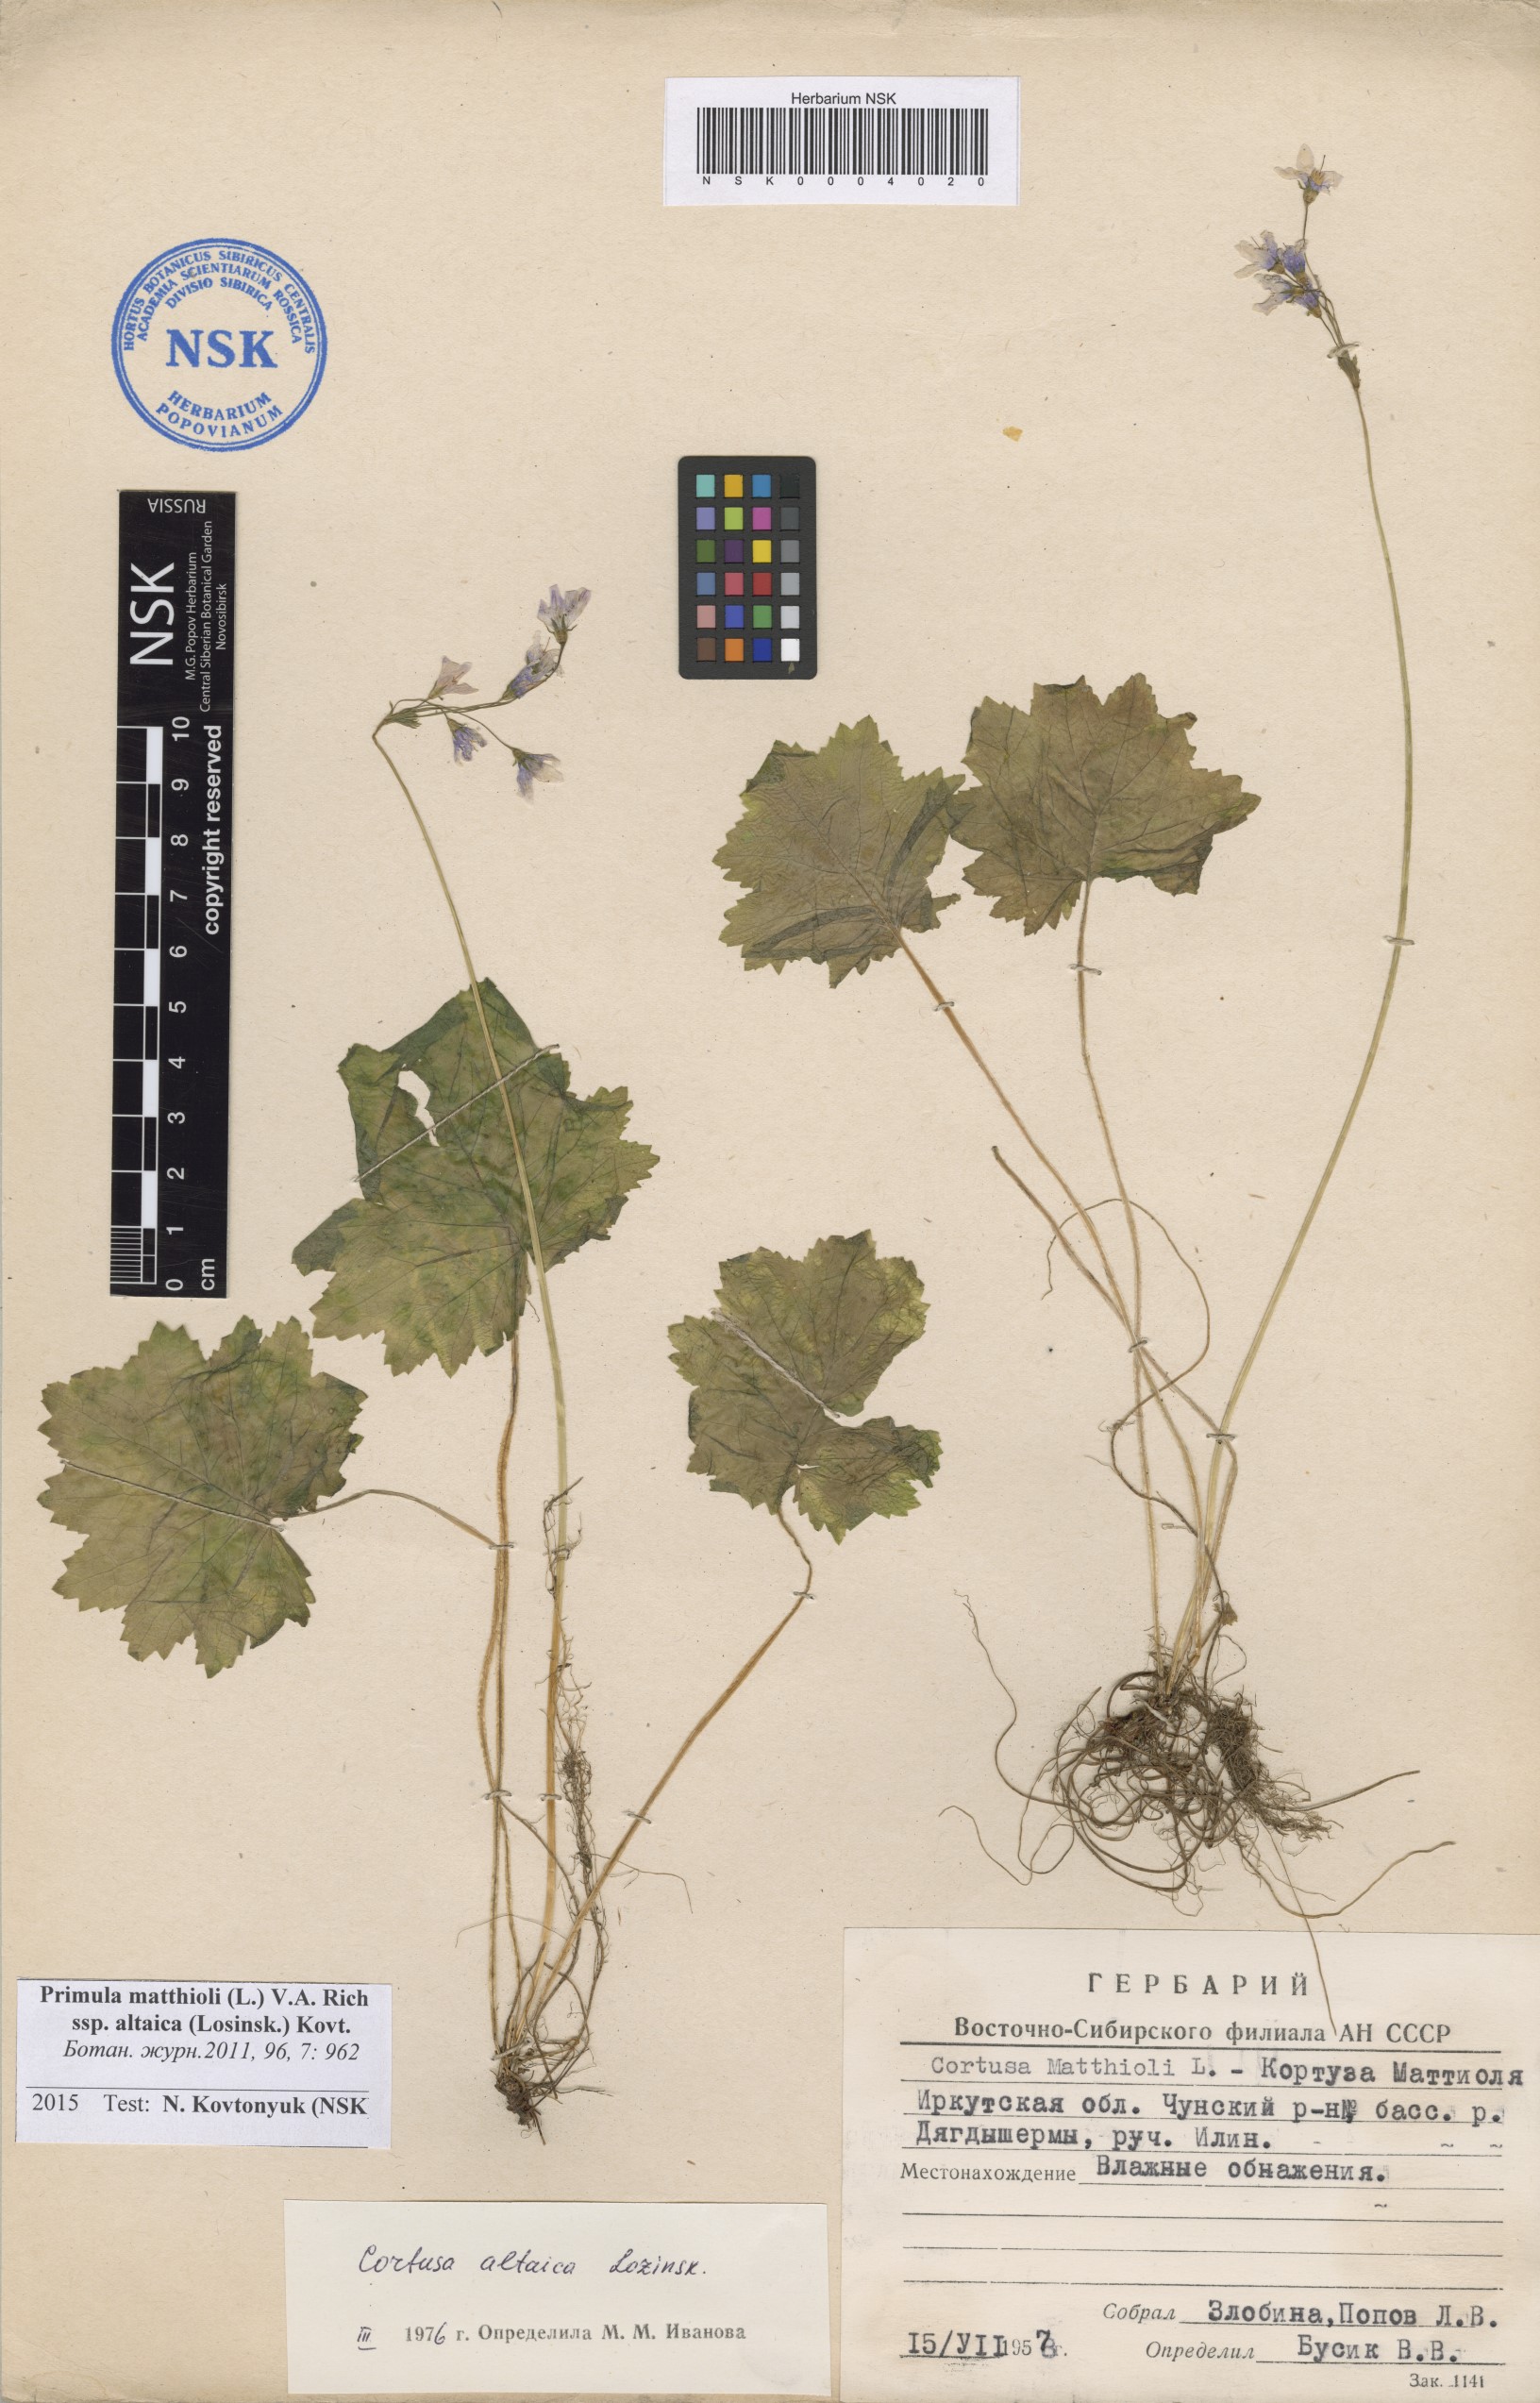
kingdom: Plantae
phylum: Tracheophyta
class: Magnoliopsida
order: Ericales
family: Primulaceae
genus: Primula
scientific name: Primula matthioli
